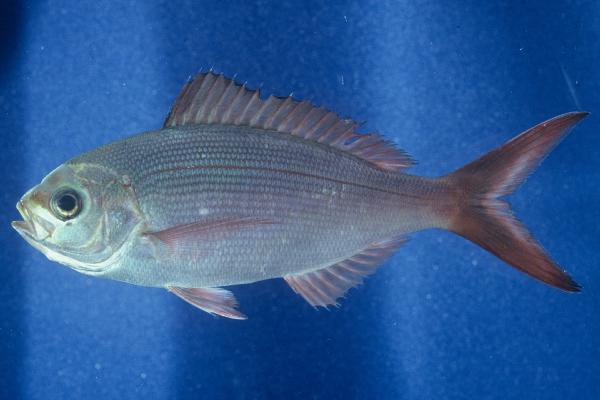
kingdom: Animalia
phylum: Chordata
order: Perciformes
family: Lutjanidae
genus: Paracaesio
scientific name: Paracaesio sordida
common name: Blue snapper
